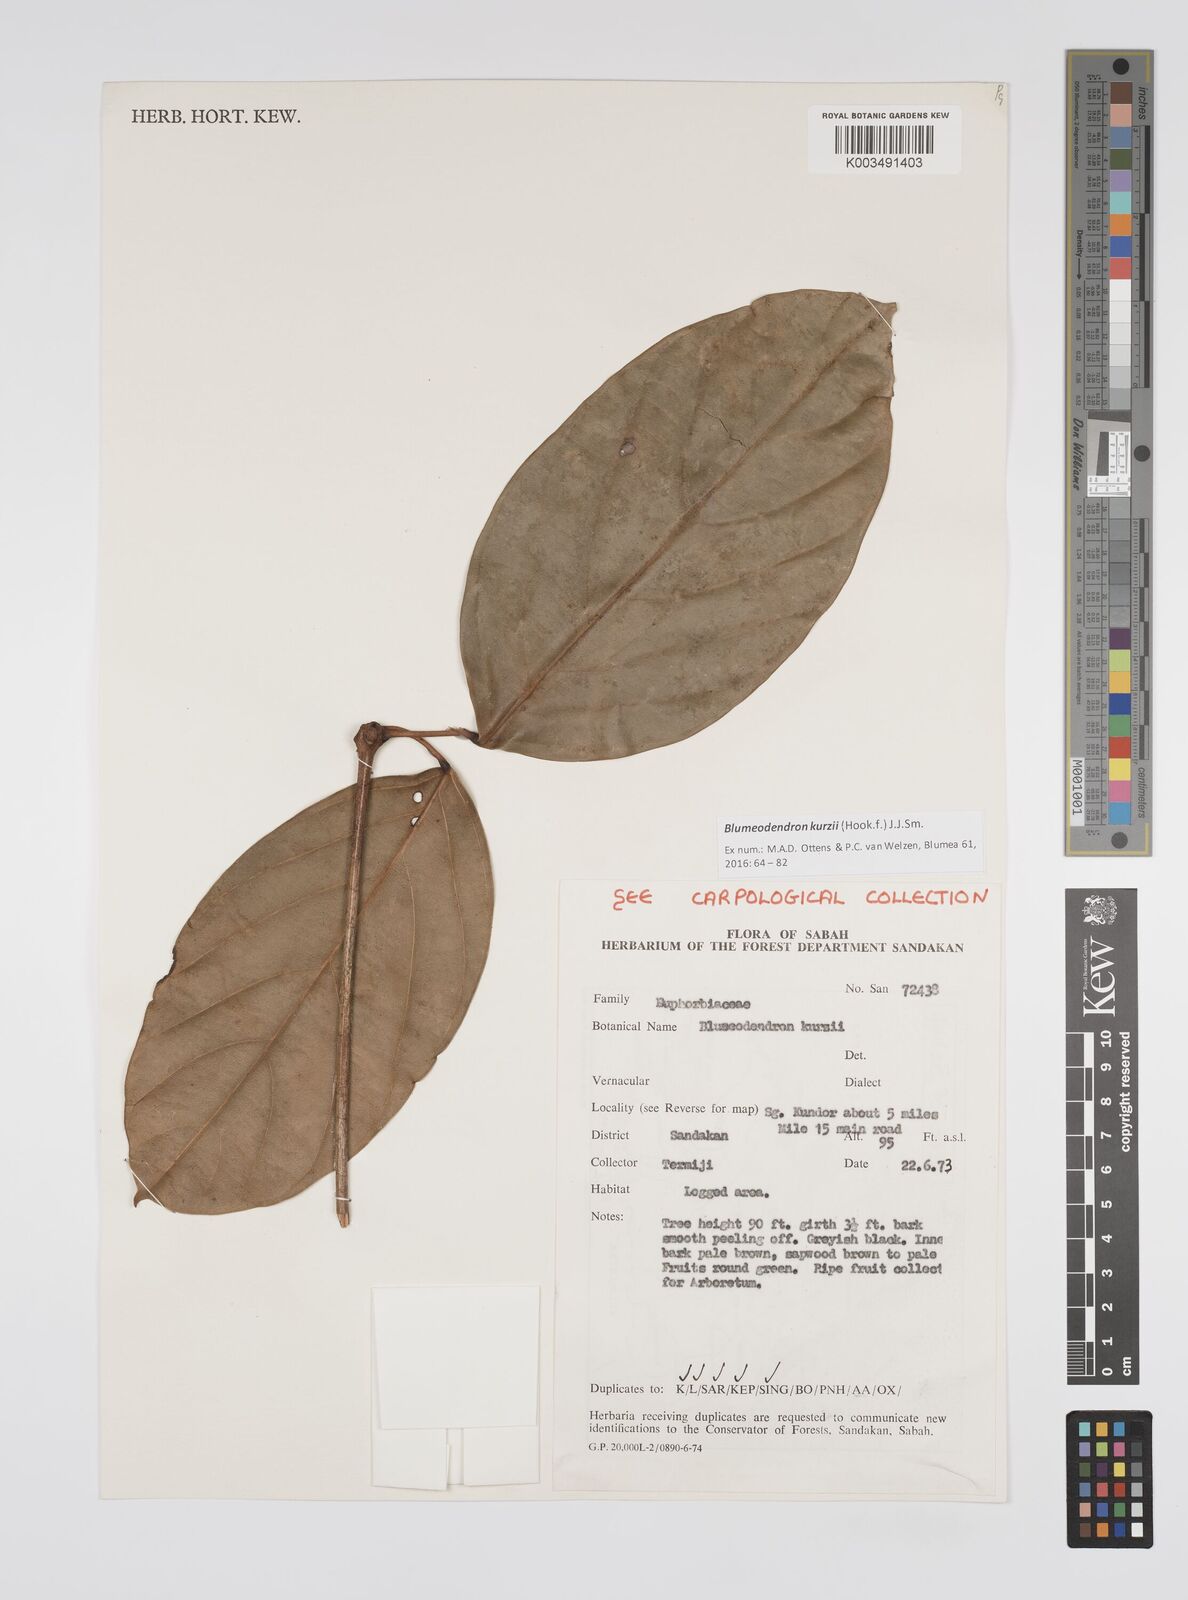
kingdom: Plantae
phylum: Tracheophyta
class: Magnoliopsida
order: Malpighiales
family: Euphorbiaceae
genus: Blumeodendron
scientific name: Blumeodendron kurzii
